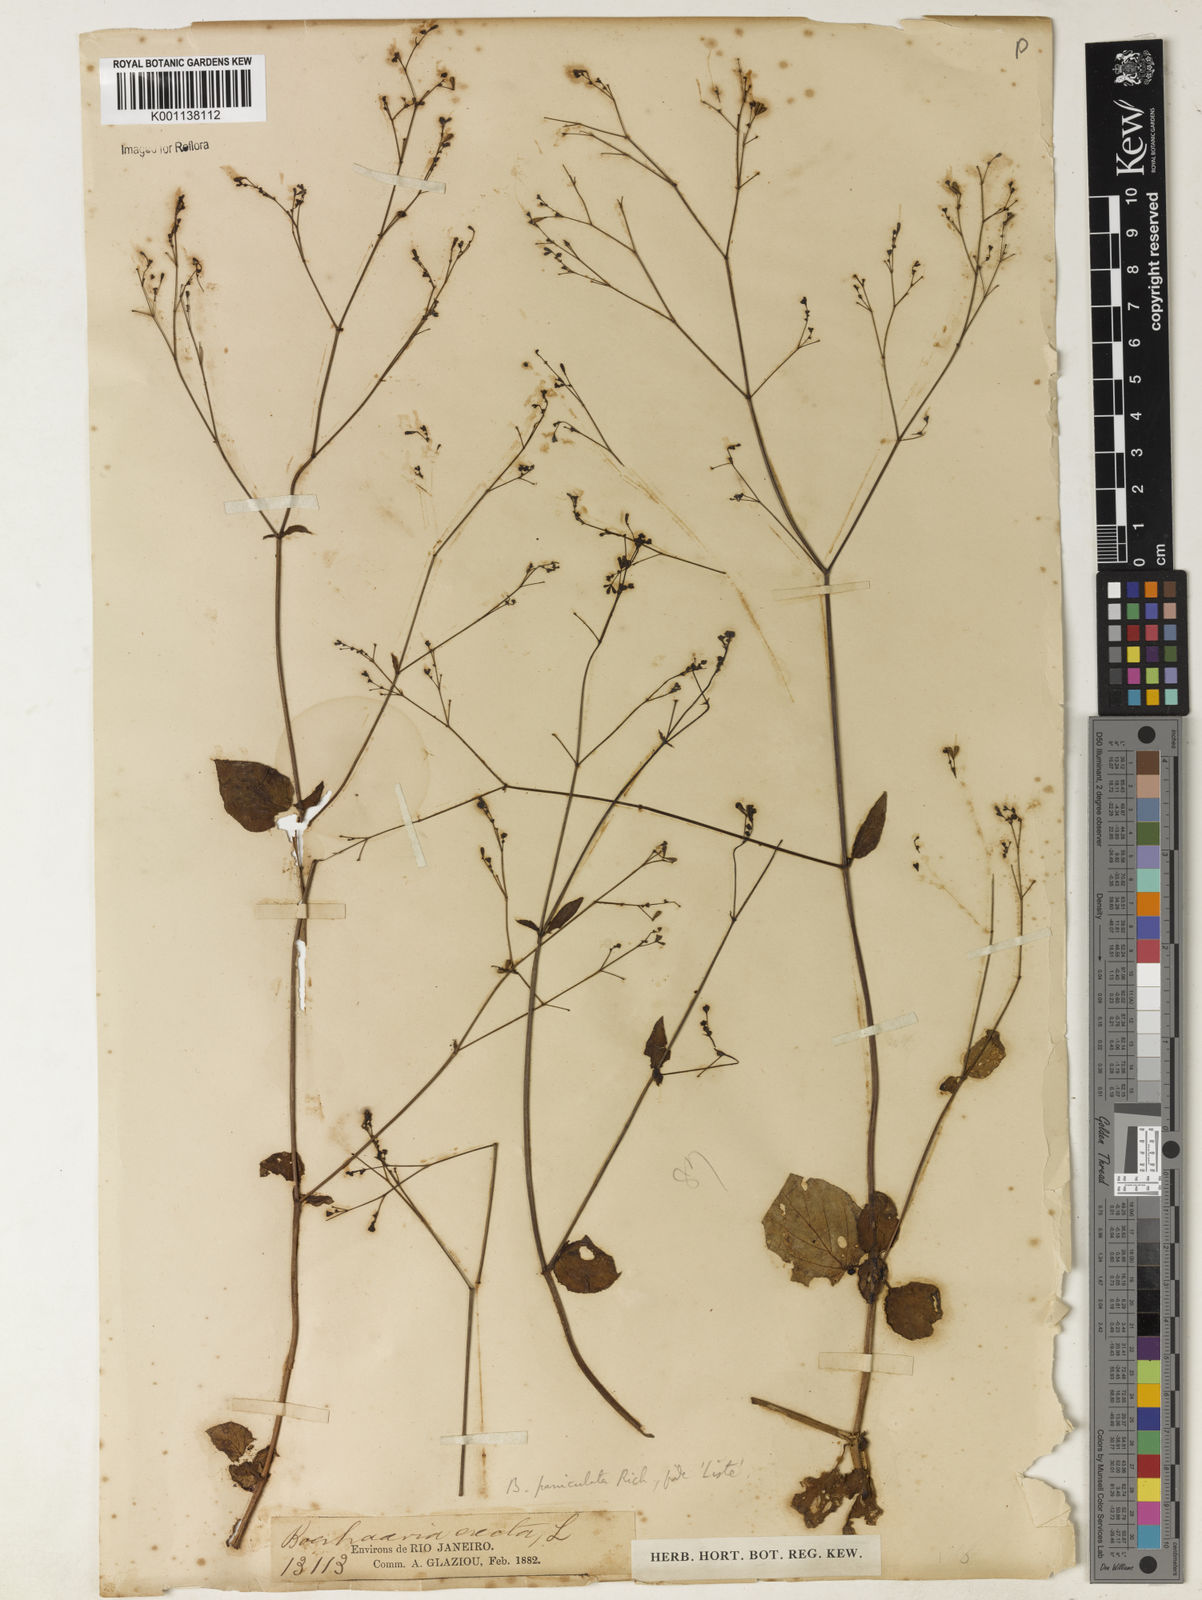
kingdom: Plantae
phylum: Tracheophyta
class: Magnoliopsida
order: Caryophyllales
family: Nyctaginaceae
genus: Boerhavia
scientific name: Boerhavia diffusa
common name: Red spiderling
